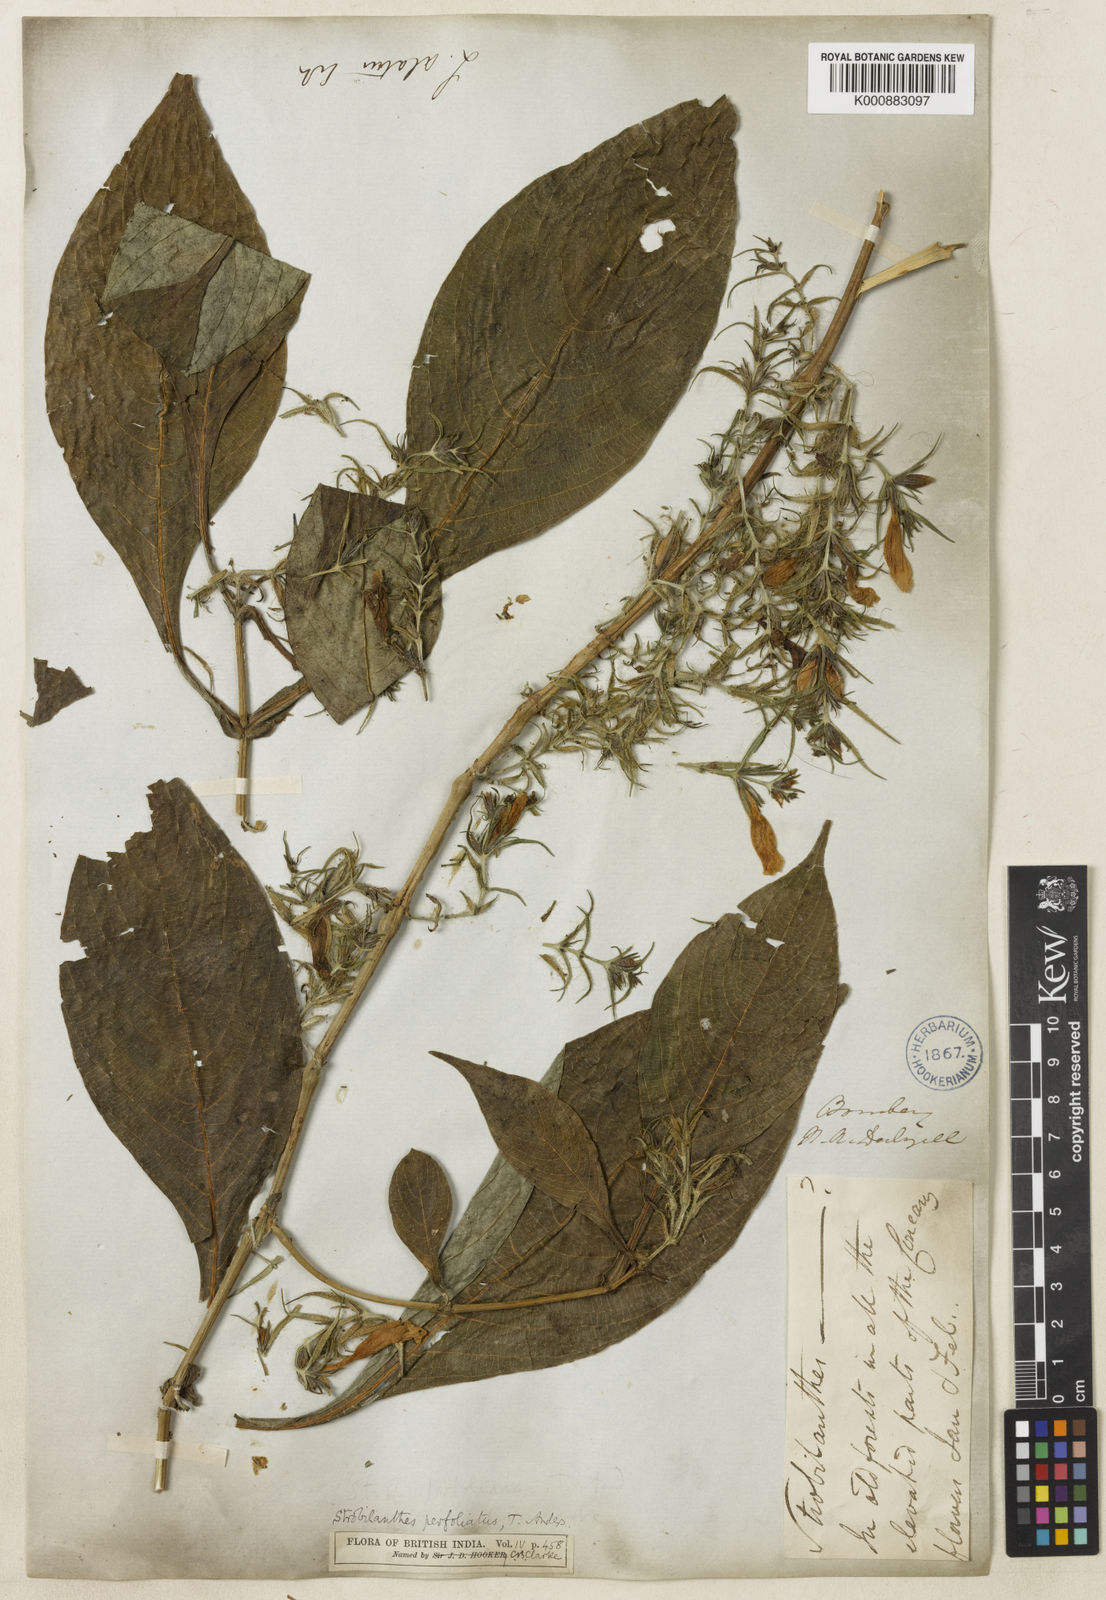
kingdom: Plantae
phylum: Tracheophyta
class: Magnoliopsida
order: Lamiales
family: Acanthaceae
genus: Strobilanthes
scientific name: Strobilanthes integrifolia
